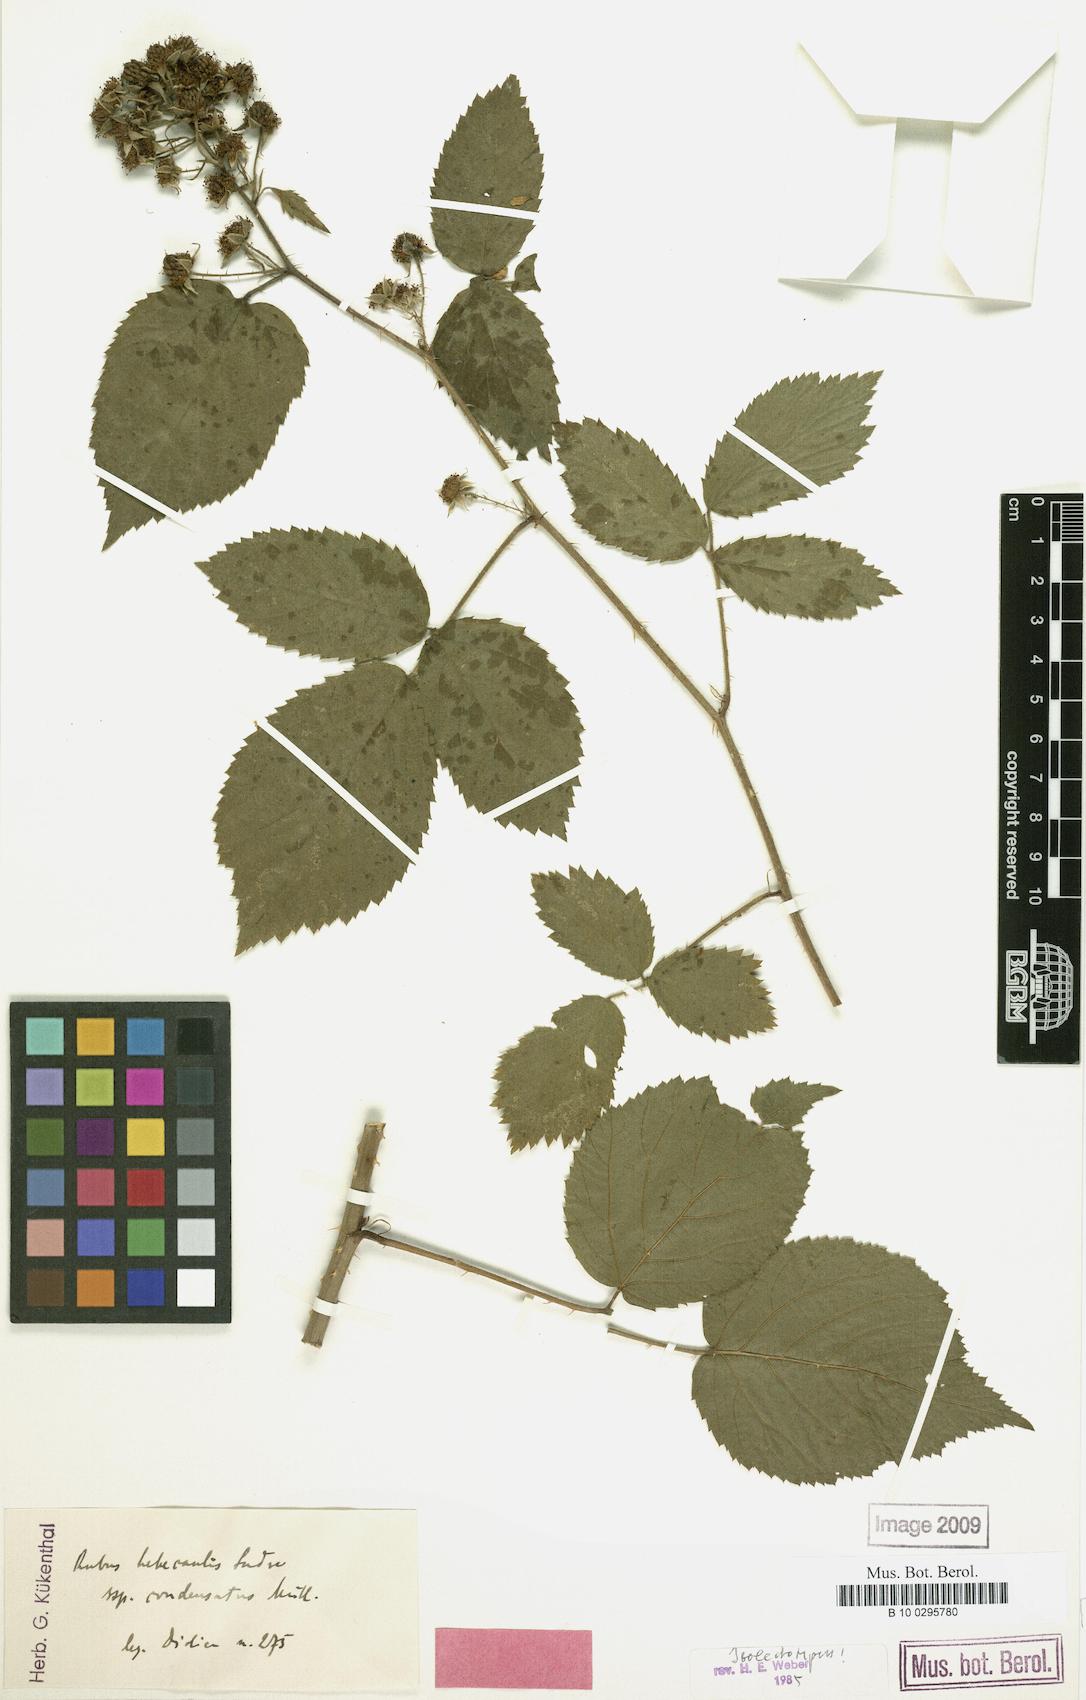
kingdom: Plantae
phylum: Tracheophyta
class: Magnoliopsida
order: Rosales
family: Rosaceae
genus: Rubus
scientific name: Rubus hebecaulis
